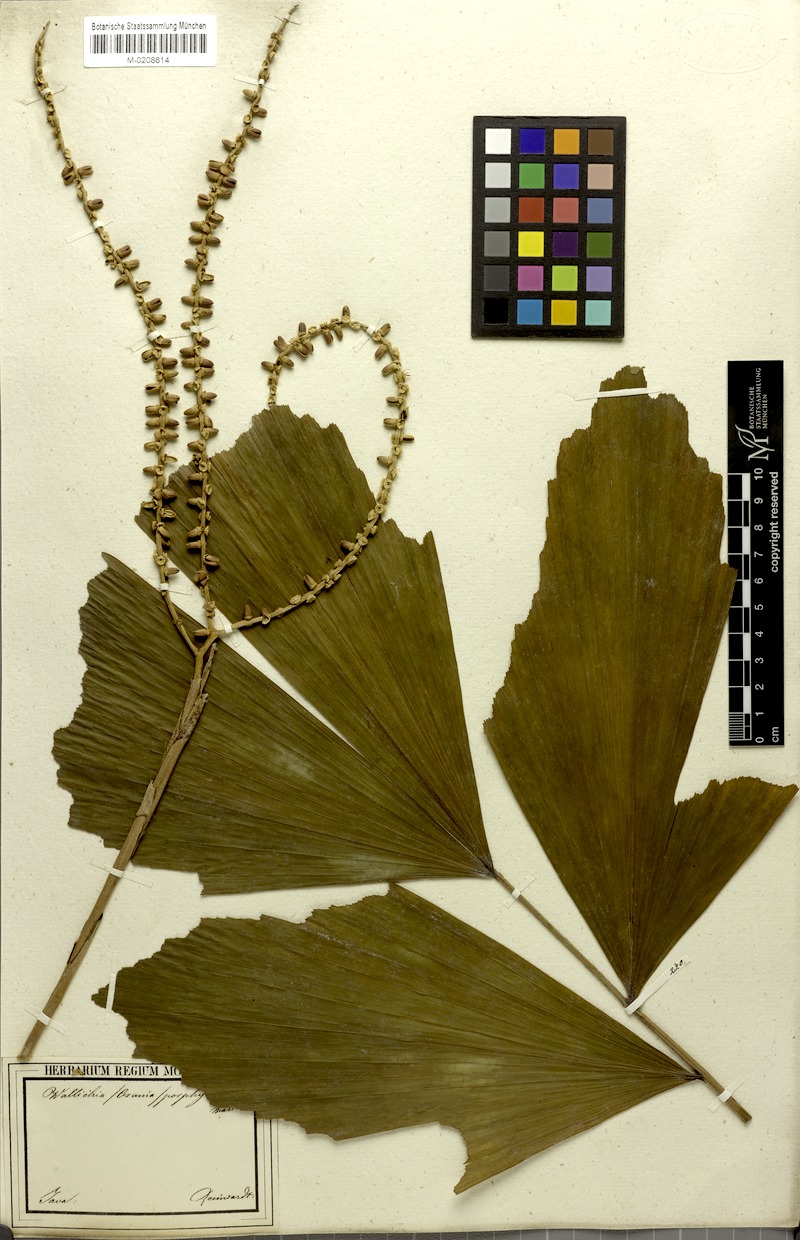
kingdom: Plantae
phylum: Tracheophyta
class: Liliopsida
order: Arecales
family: Arecaceae
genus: Arenga
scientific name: Arenga porphyrocarpa
